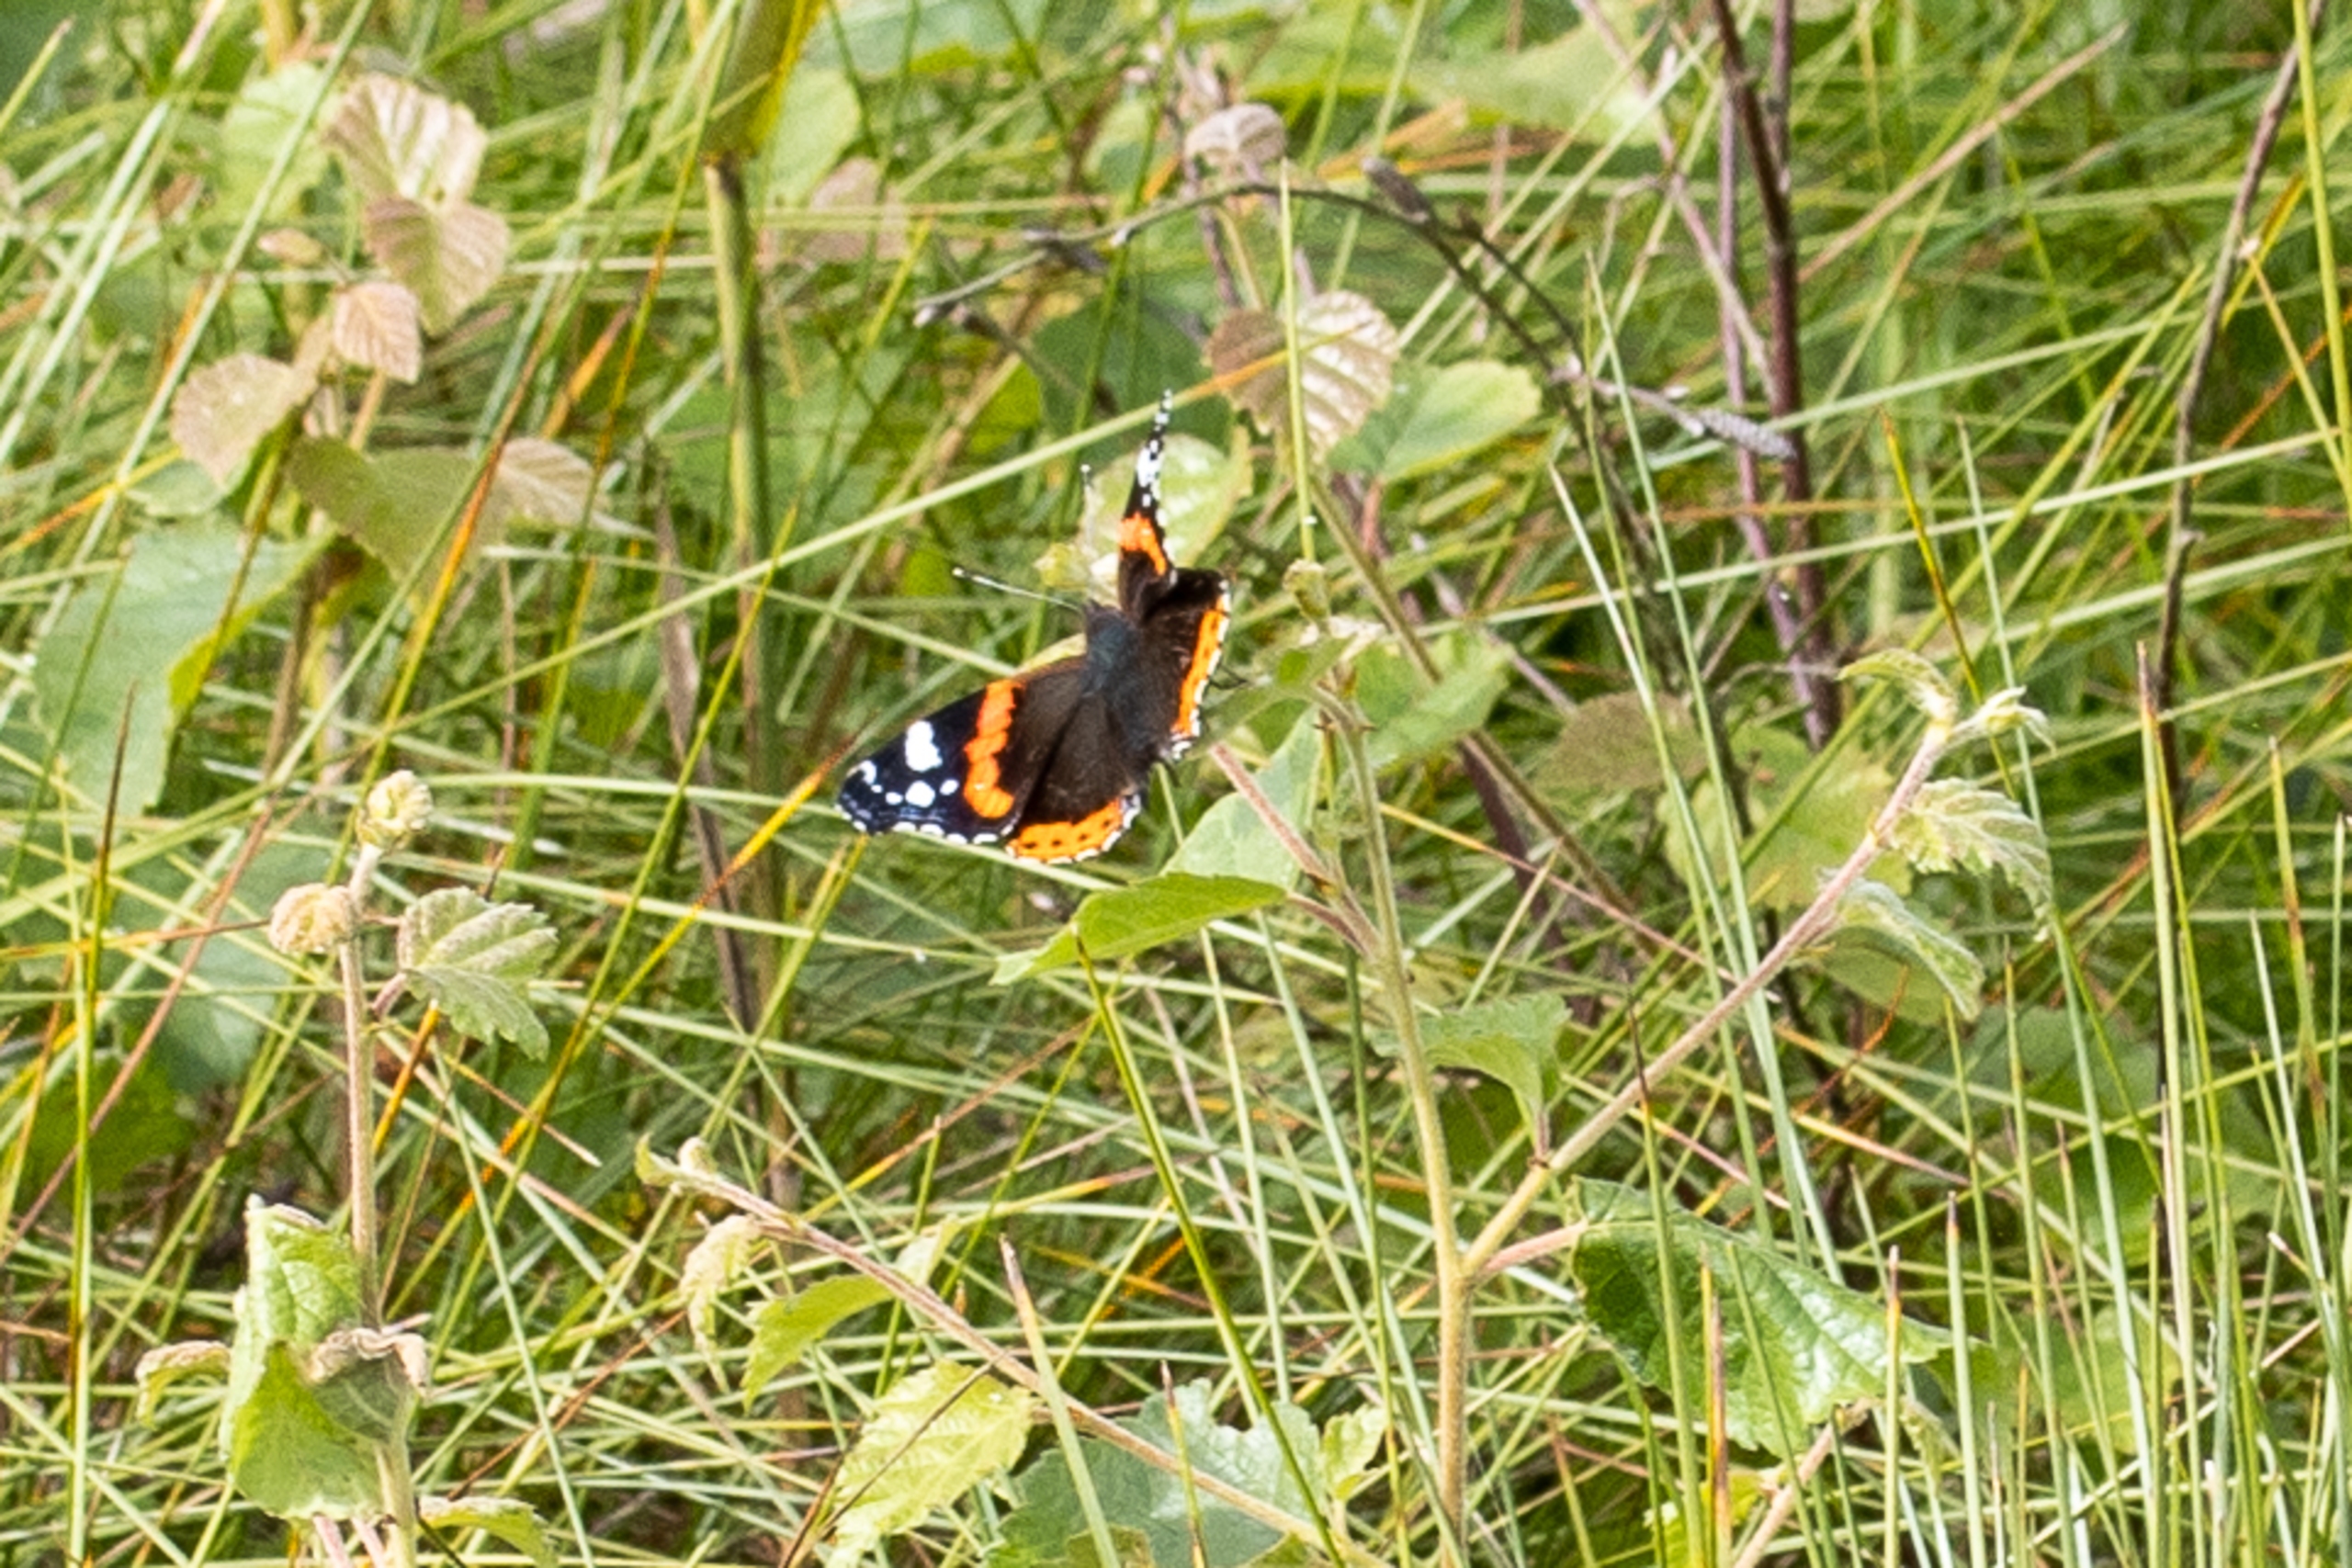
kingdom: Animalia
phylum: Arthropoda
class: Insecta
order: Lepidoptera
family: Nymphalidae
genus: Vanessa
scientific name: Vanessa atalanta
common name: Admiral
